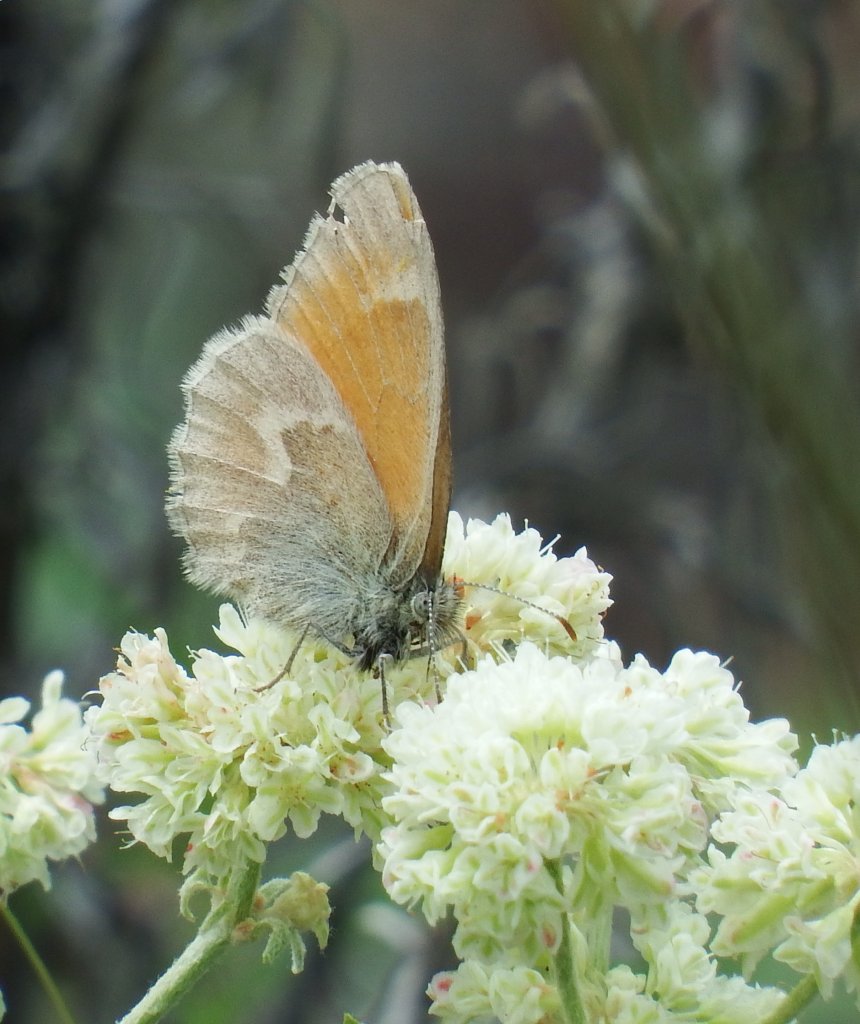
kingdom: Animalia
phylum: Arthropoda
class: Insecta
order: Lepidoptera
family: Nymphalidae
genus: Coenonympha
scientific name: Coenonympha tullia
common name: Large Heath
